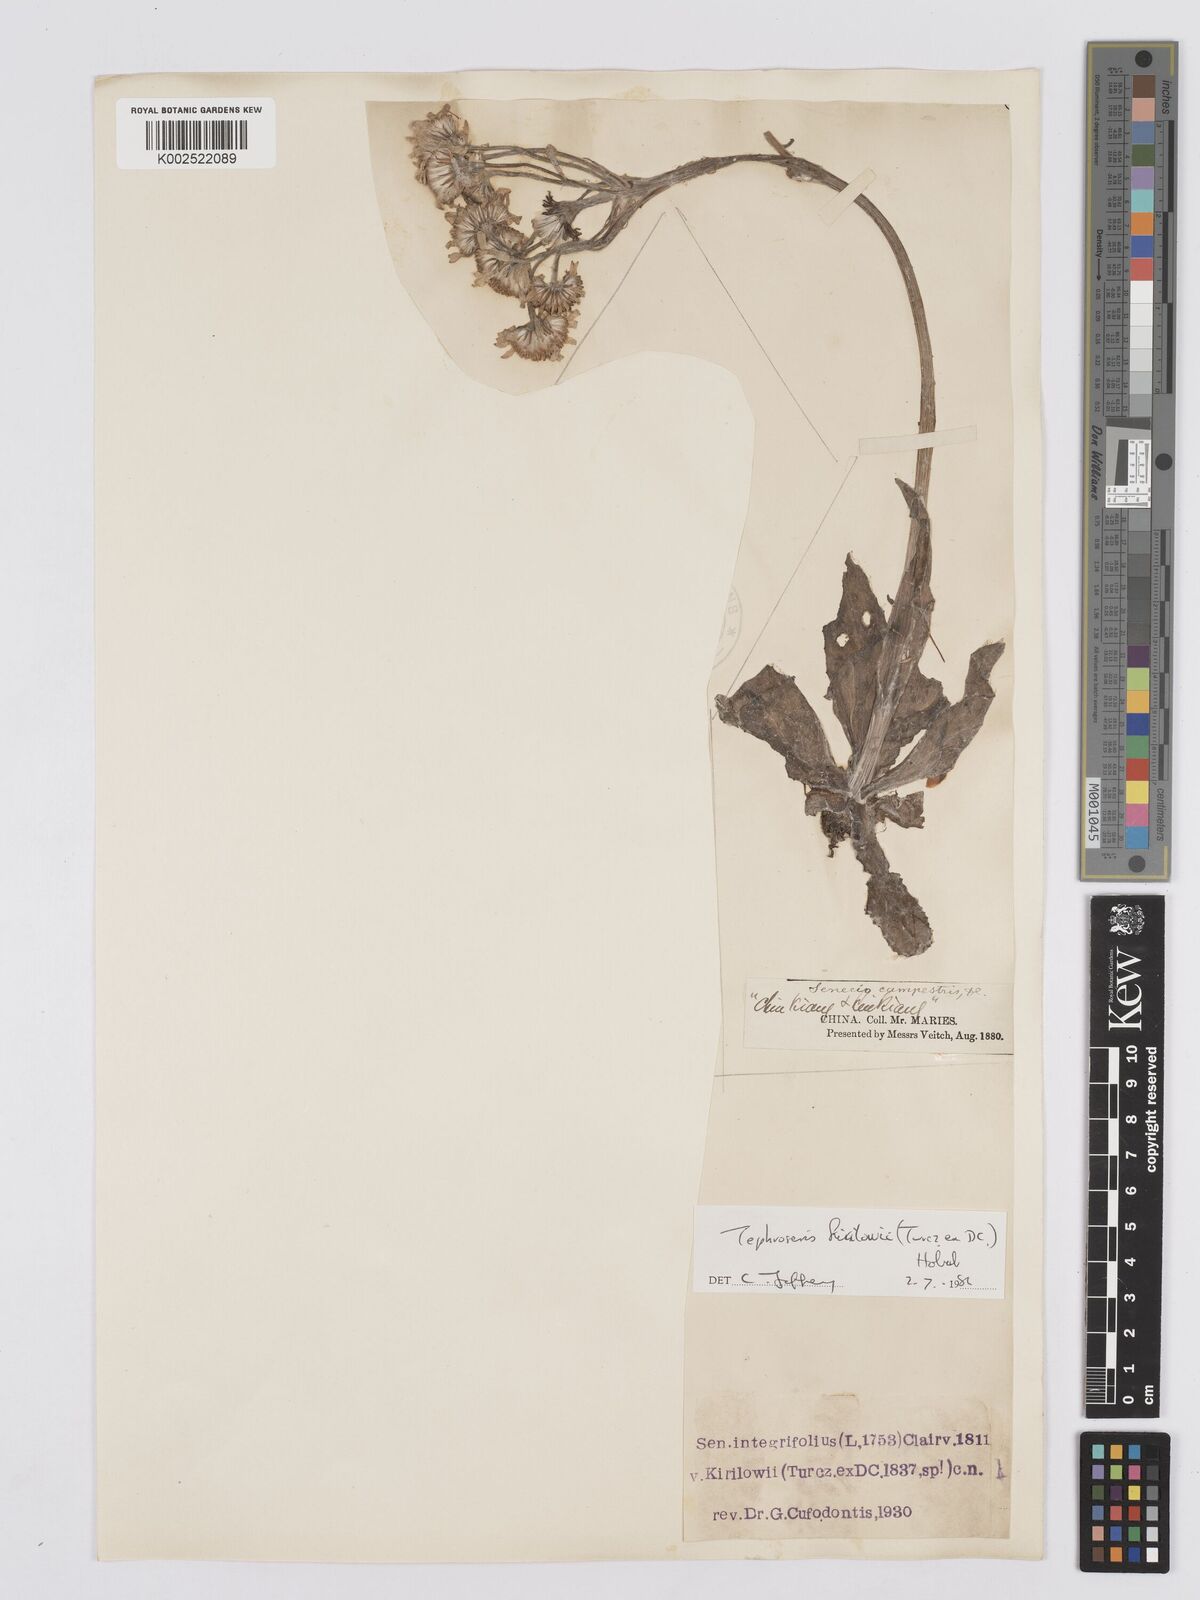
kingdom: Plantae
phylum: Tracheophyta
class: Magnoliopsida
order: Asterales
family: Asteraceae
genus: Tephroseris
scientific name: Tephroseris kirilowii
